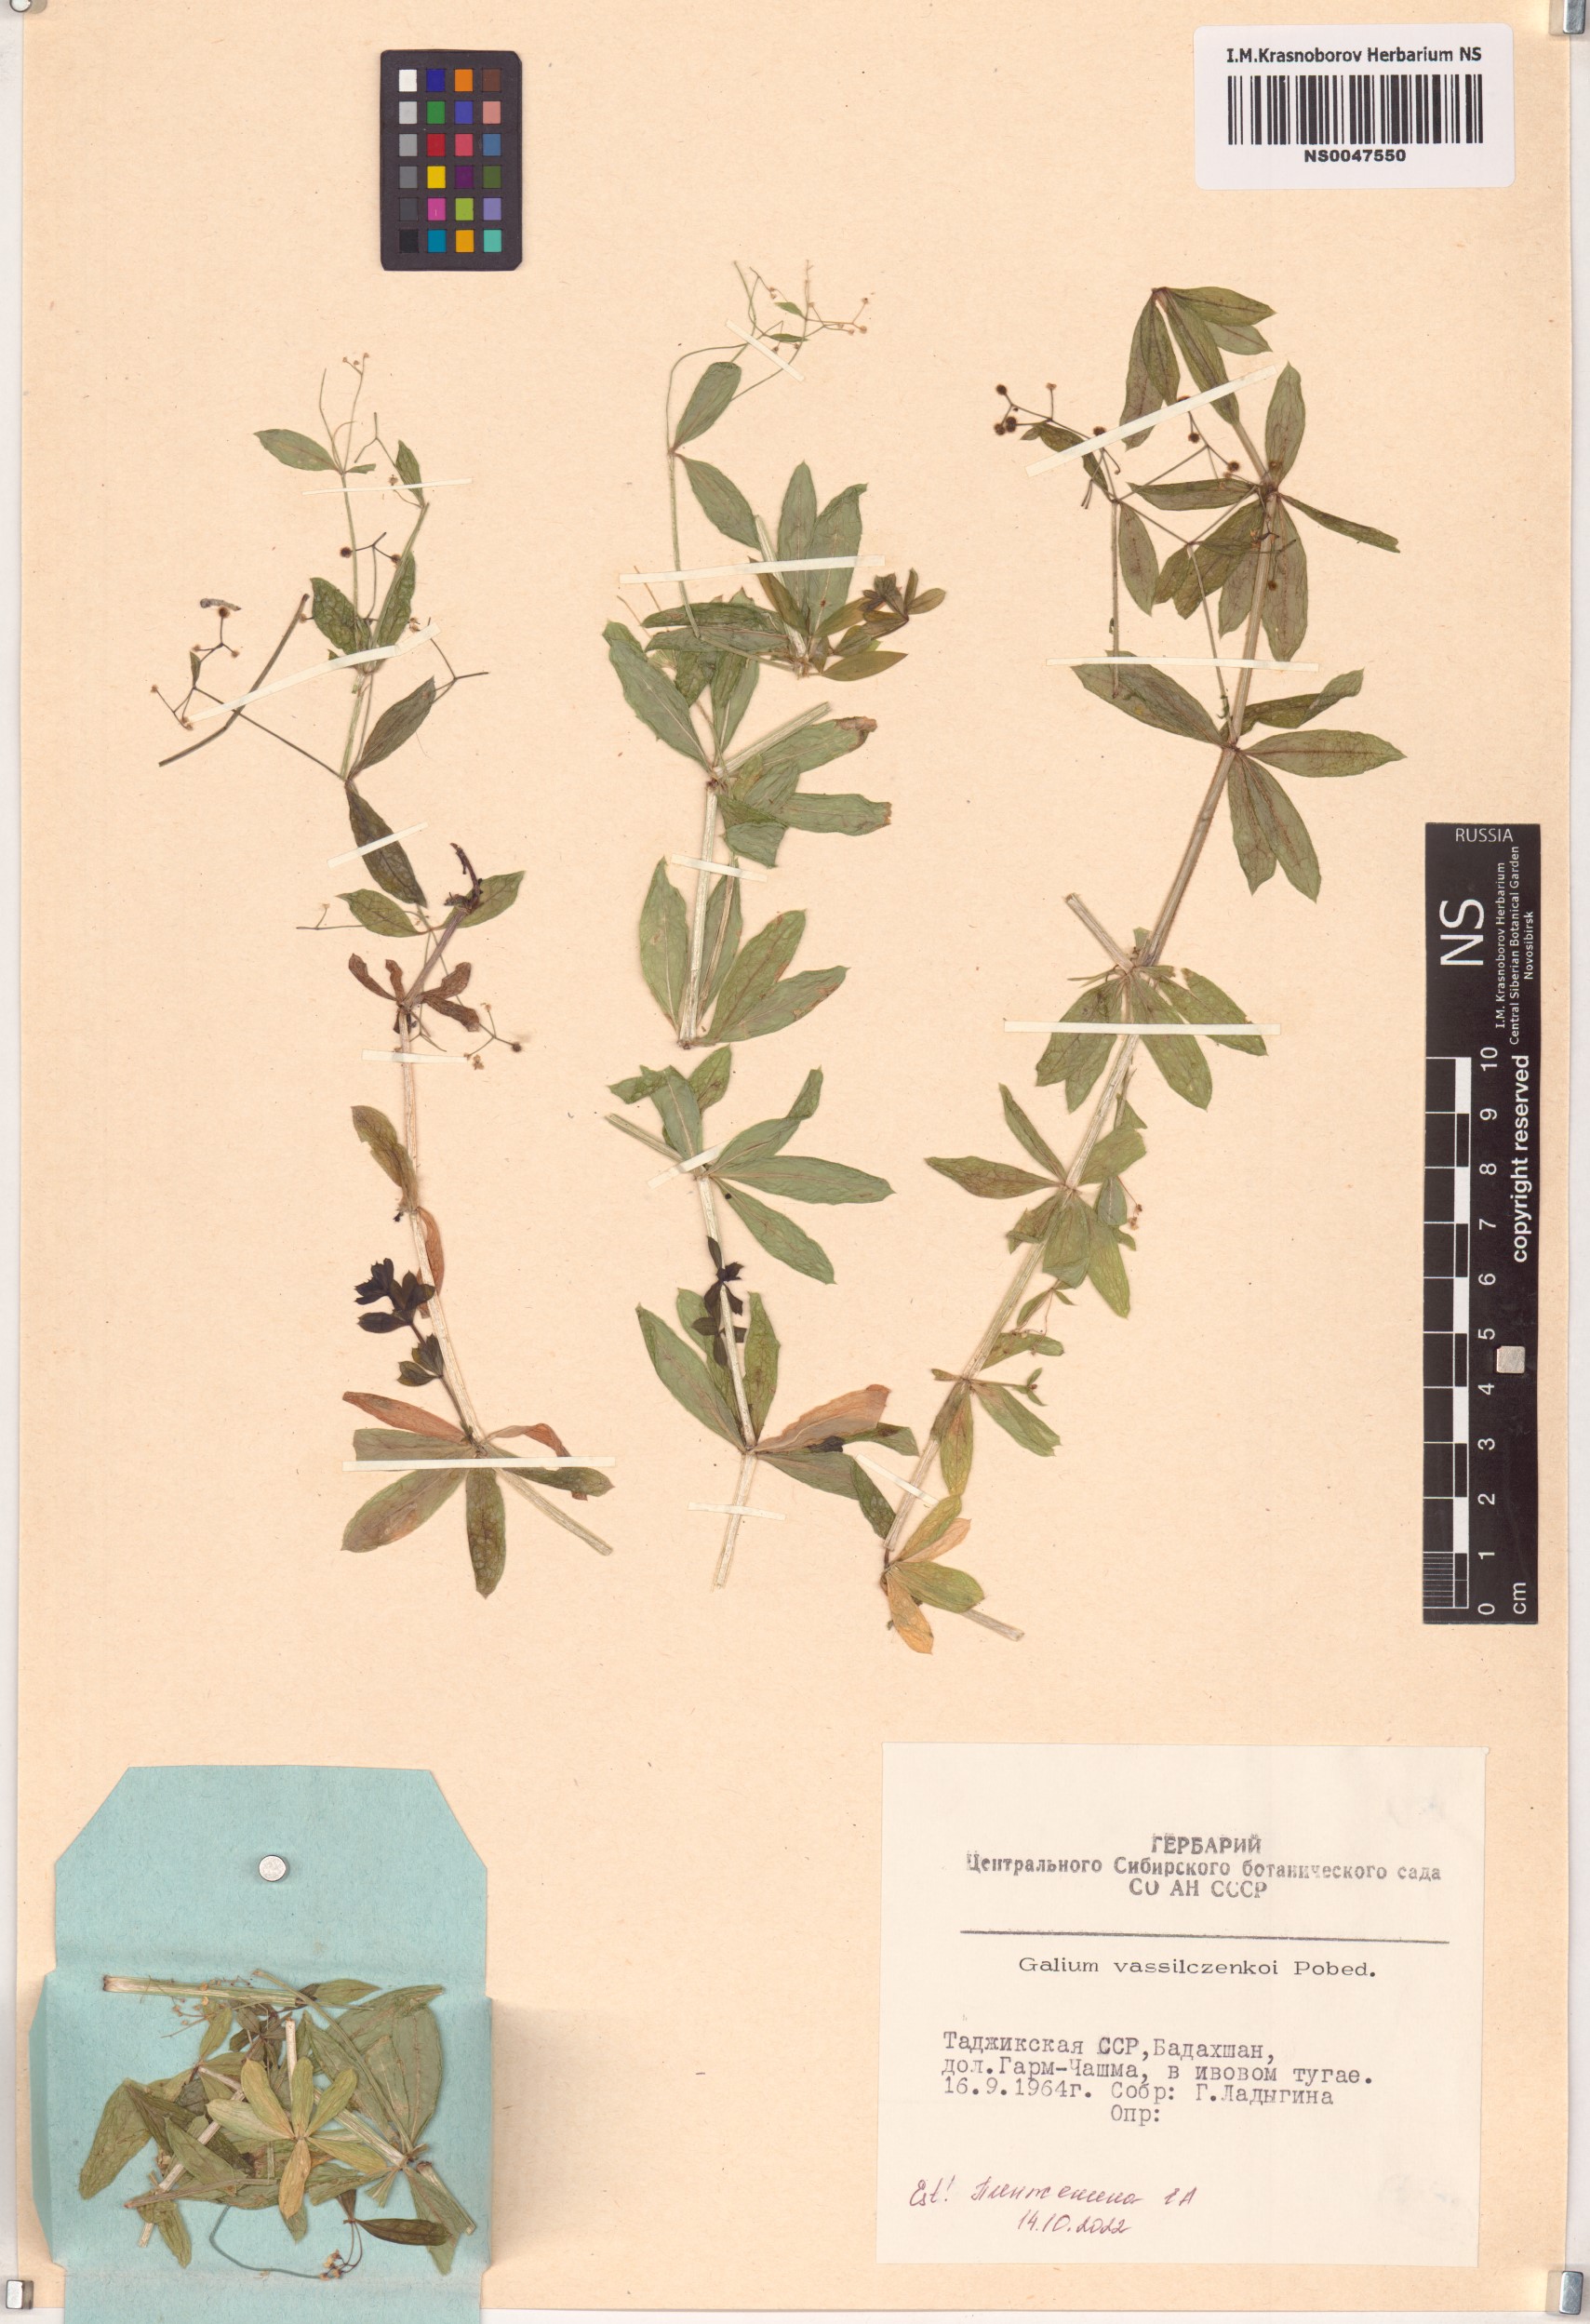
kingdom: Plantae
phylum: Tracheophyta
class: Magnoliopsida
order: Gentianales
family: Rubiaceae
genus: Galium
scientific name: Galium vassilczenkoi
